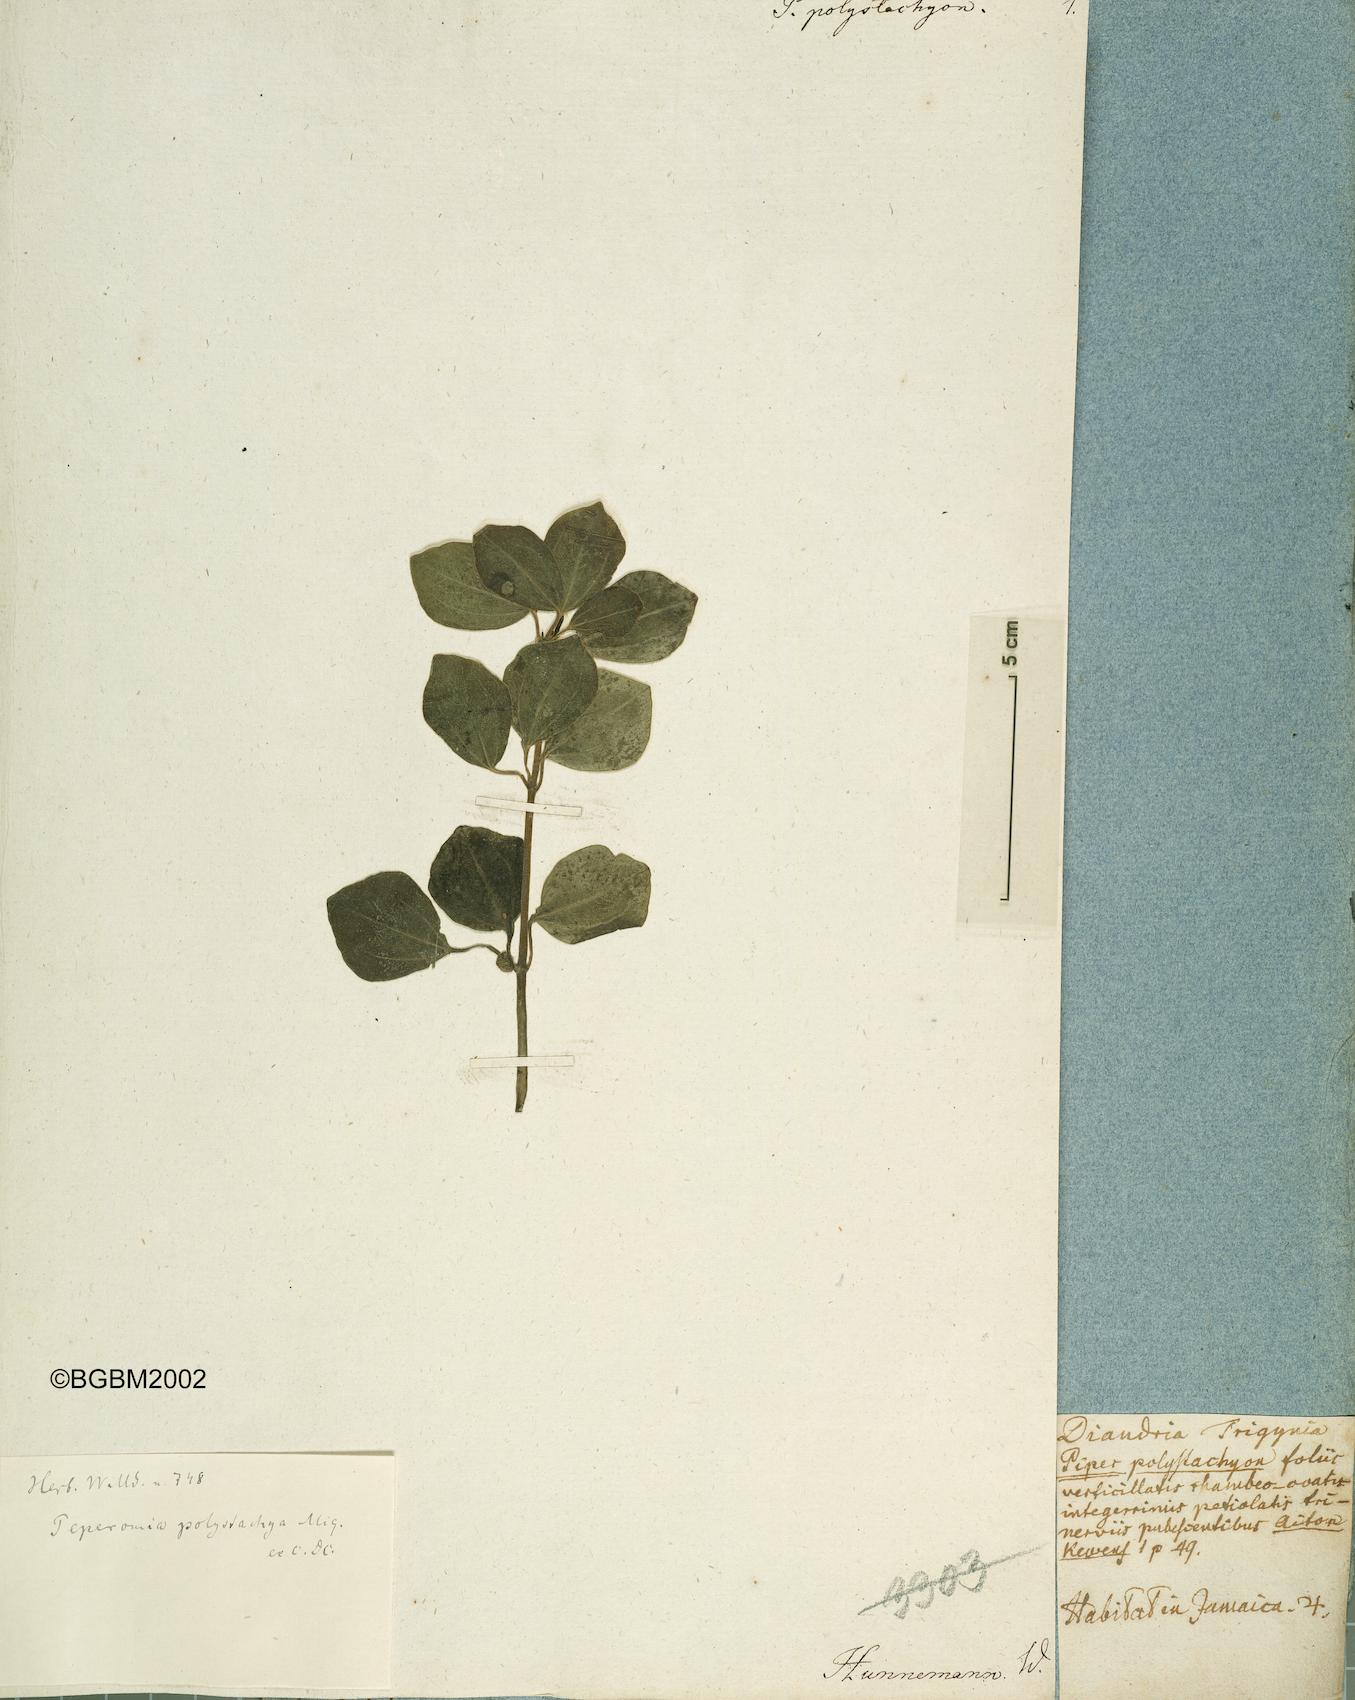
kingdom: Plantae
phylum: Tracheophyta
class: Magnoliopsida
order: Piperales
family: Piperaceae
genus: Peperomia
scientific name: Peperomia polystachya
